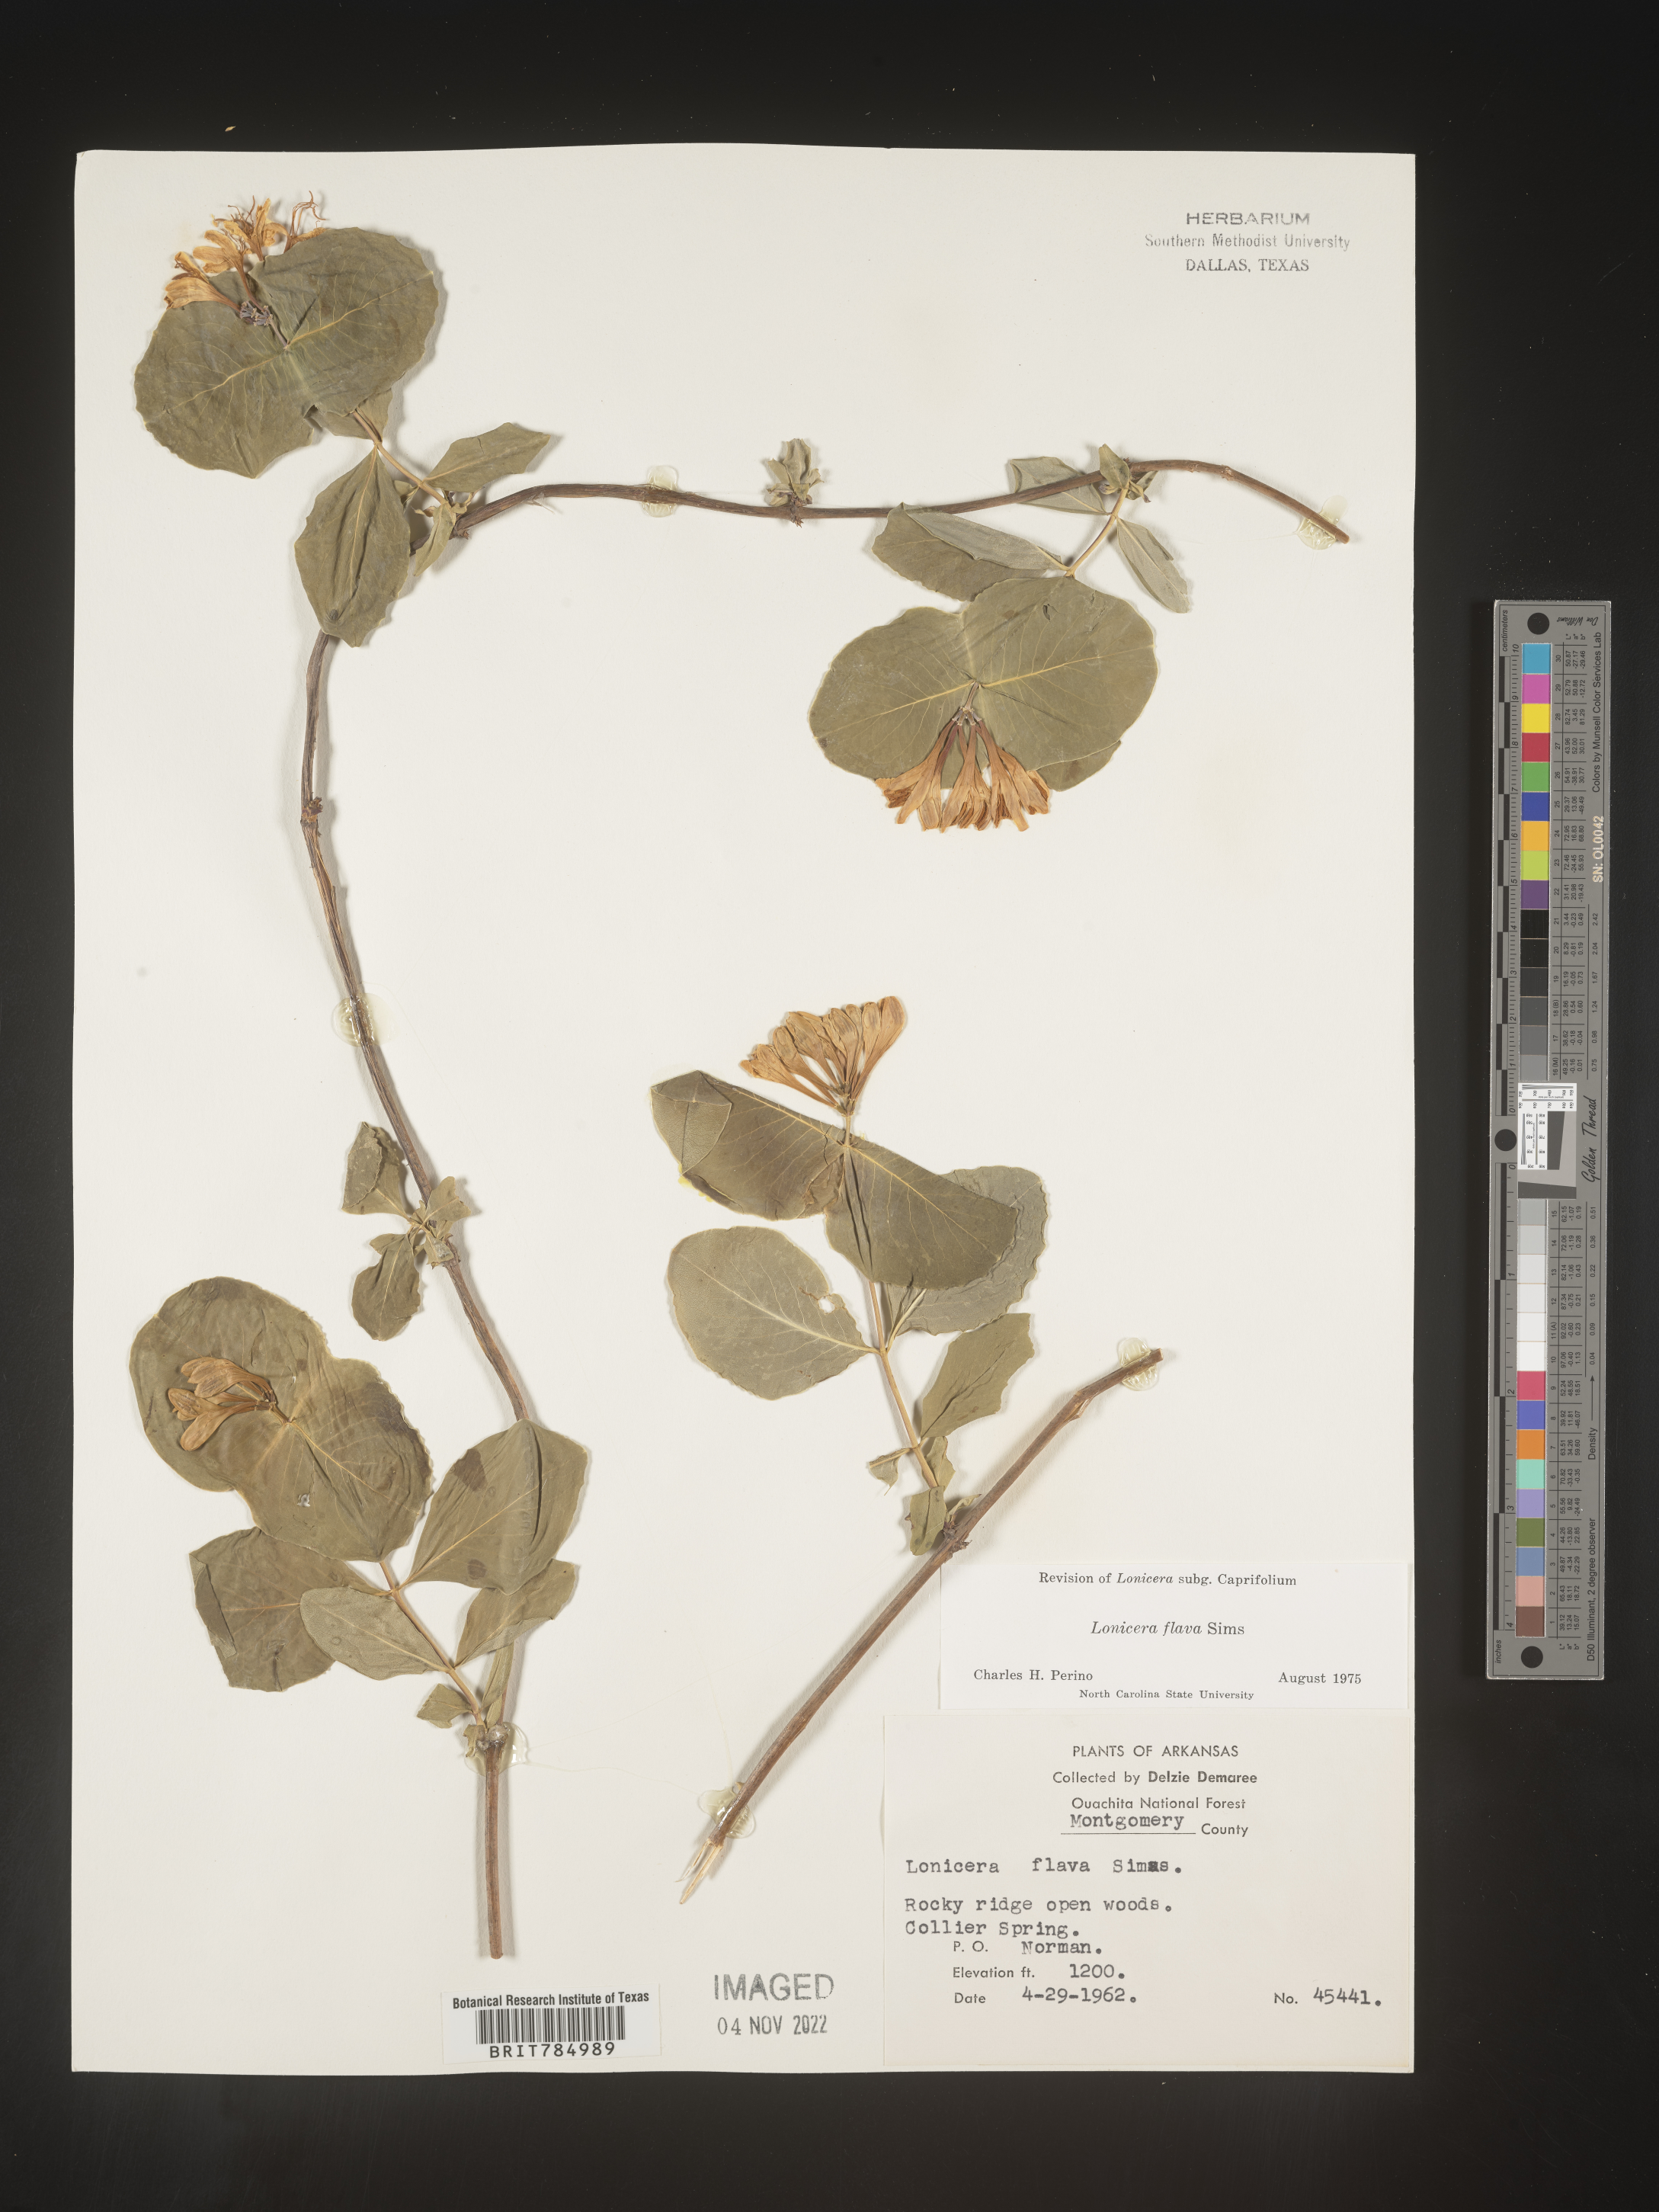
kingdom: Plantae
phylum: Tracheophyta
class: Magnoliopsida
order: Dipsacales
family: Caprifoliaceae
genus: Lonicera
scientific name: Lonicera flava
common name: Yellow honeysuckle
